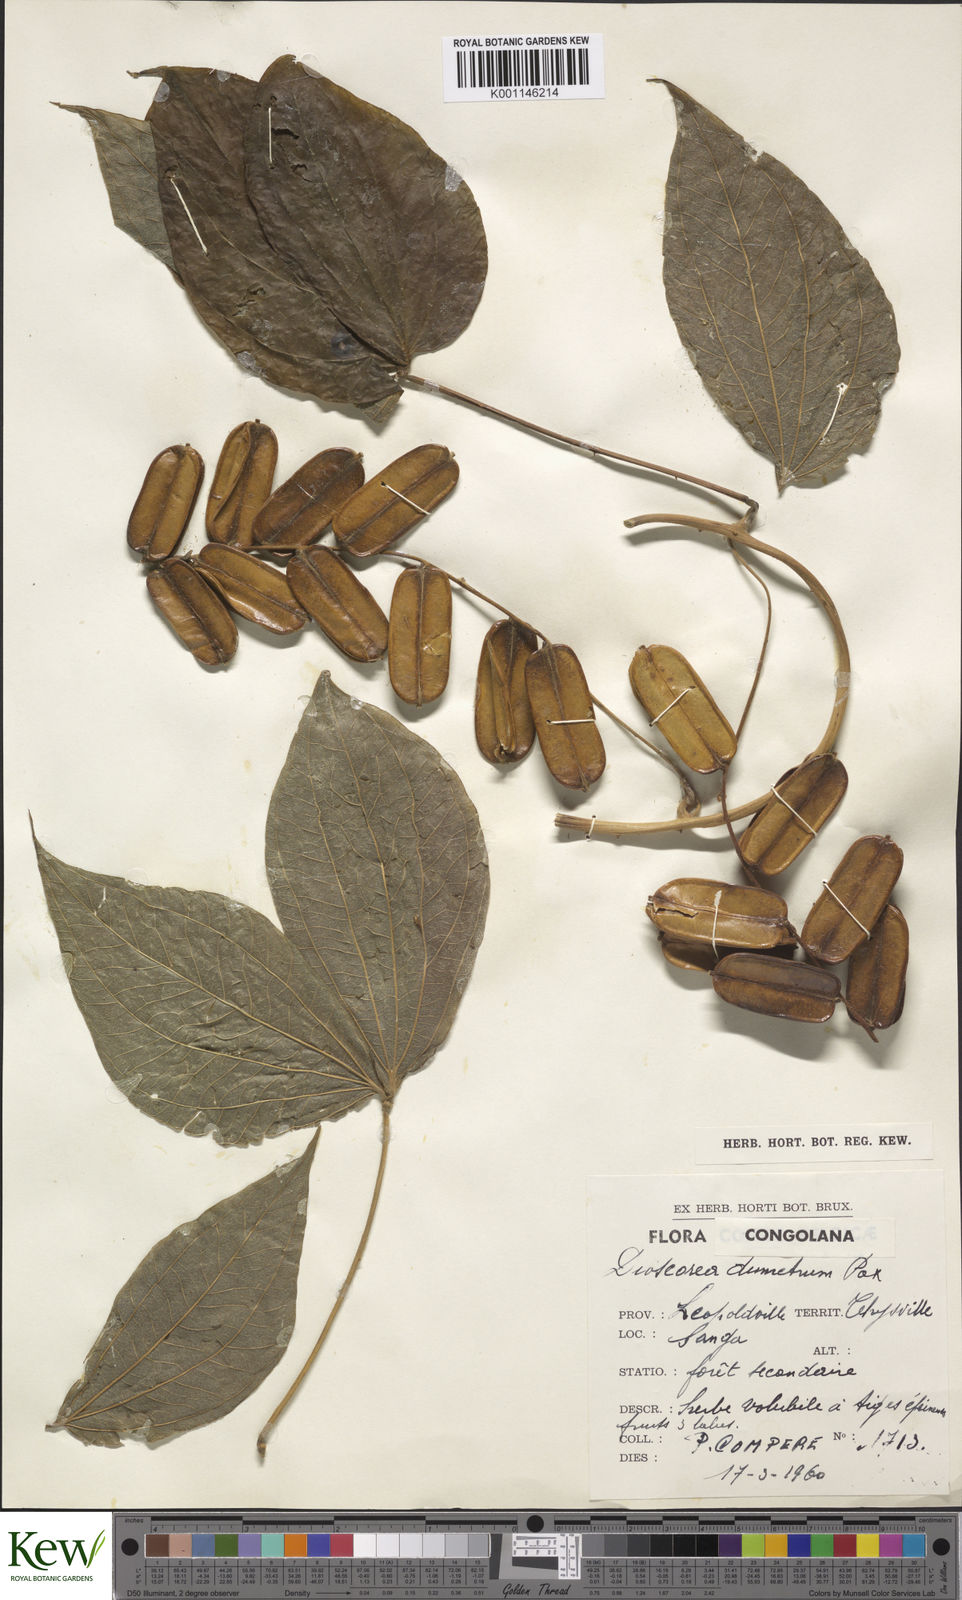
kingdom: Plantae
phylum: Tracheophyta
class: Liliopsida
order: Dioscoreales
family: Dioscoreaceae
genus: Dioscorea
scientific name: Dioscorea dumetorum
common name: African bitter yam
